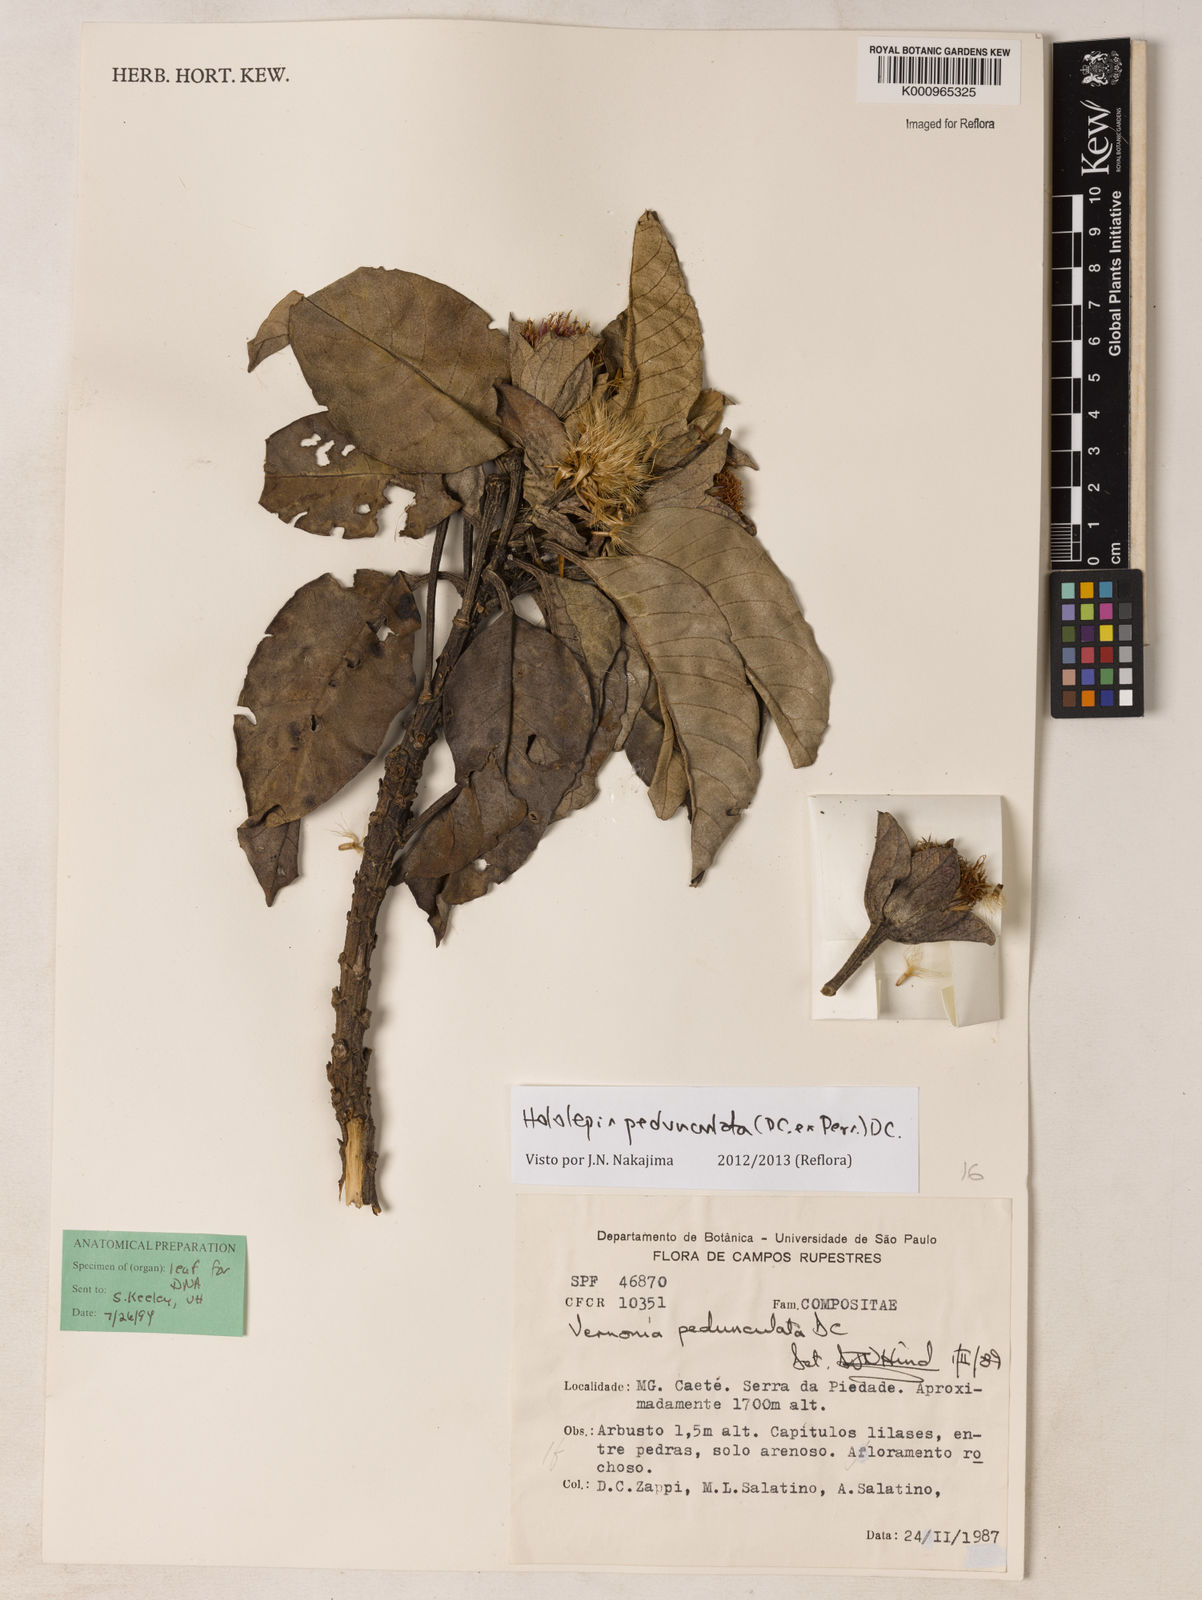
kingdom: Plantae
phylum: Tracheophyta
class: Magnoliopsida
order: Asterales
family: Asteraceae
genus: Hololepis
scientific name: Hololepis pedunculata
